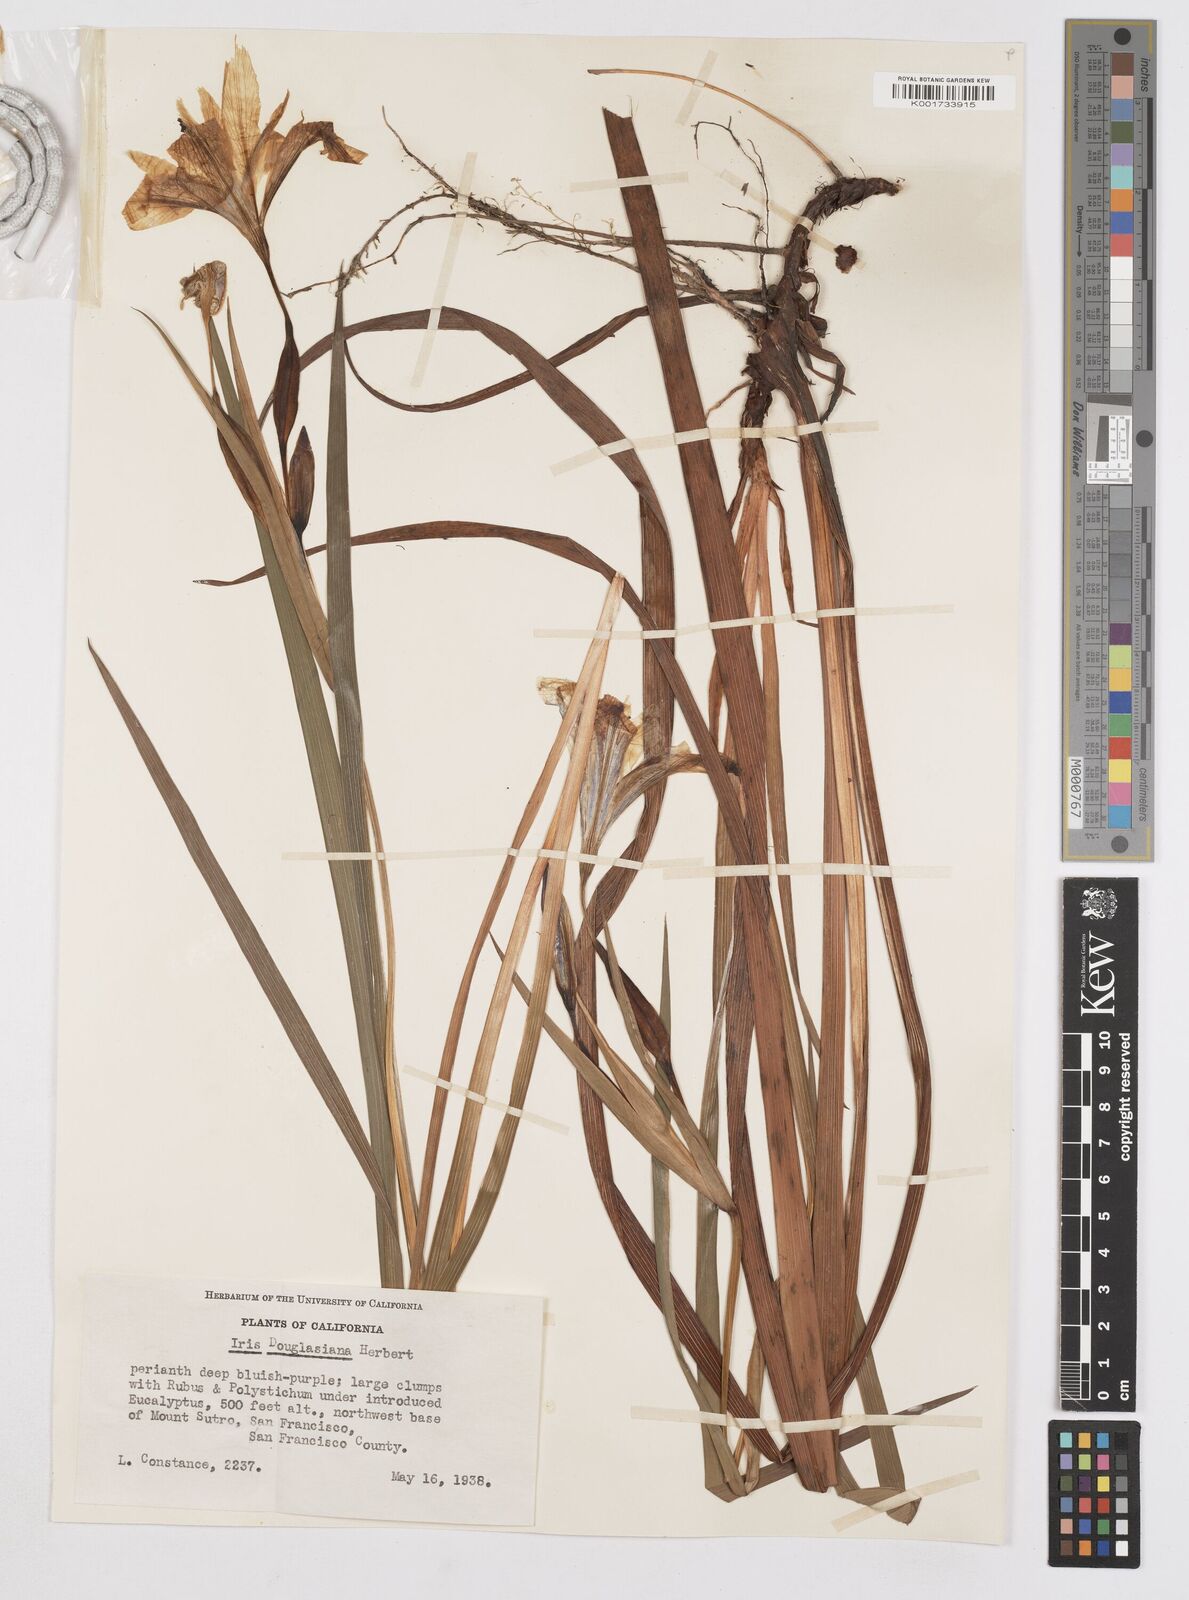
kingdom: Plantae
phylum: Tracheophyta
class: Liliopsida
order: Asparagales
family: Iridaceae
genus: Iris
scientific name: Iris douglasiana
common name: Marin iris
